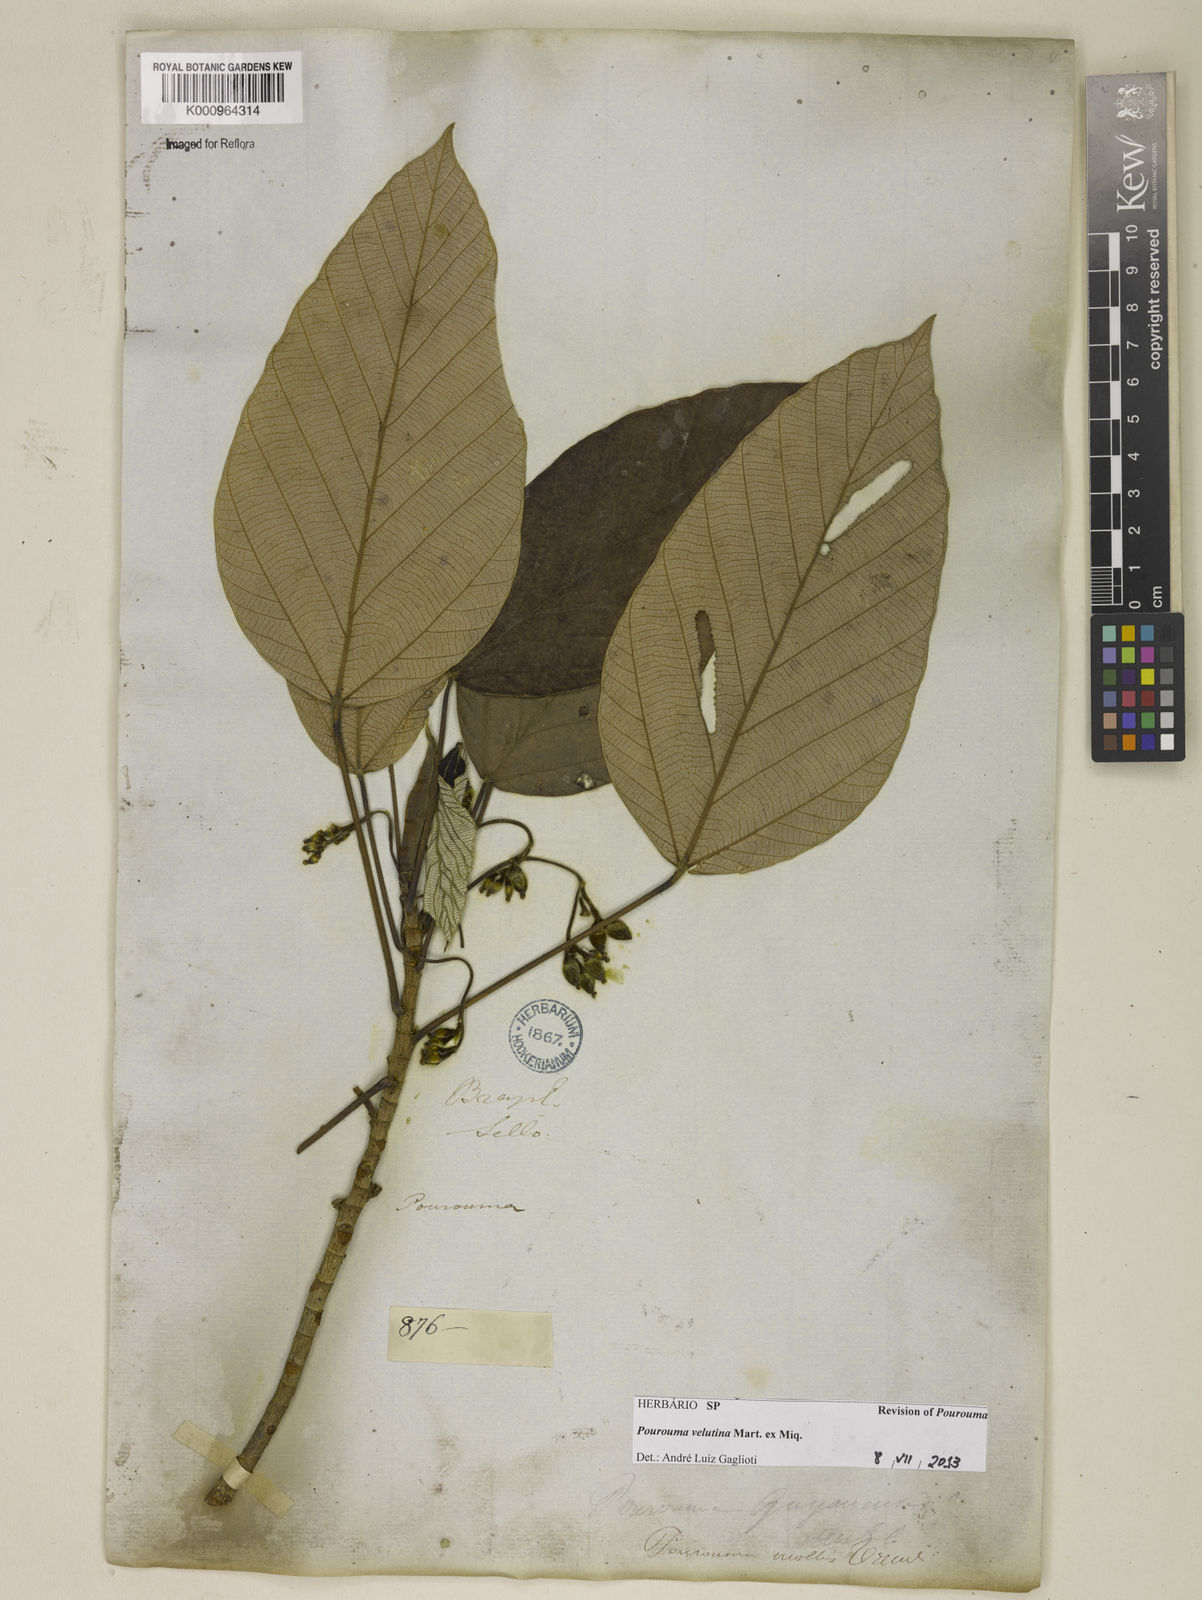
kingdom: Plantae
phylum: Tracheophyta
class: Magnoliopsida
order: Rosales
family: Urticaceae
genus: Pourouma
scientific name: Pourouma velutina
